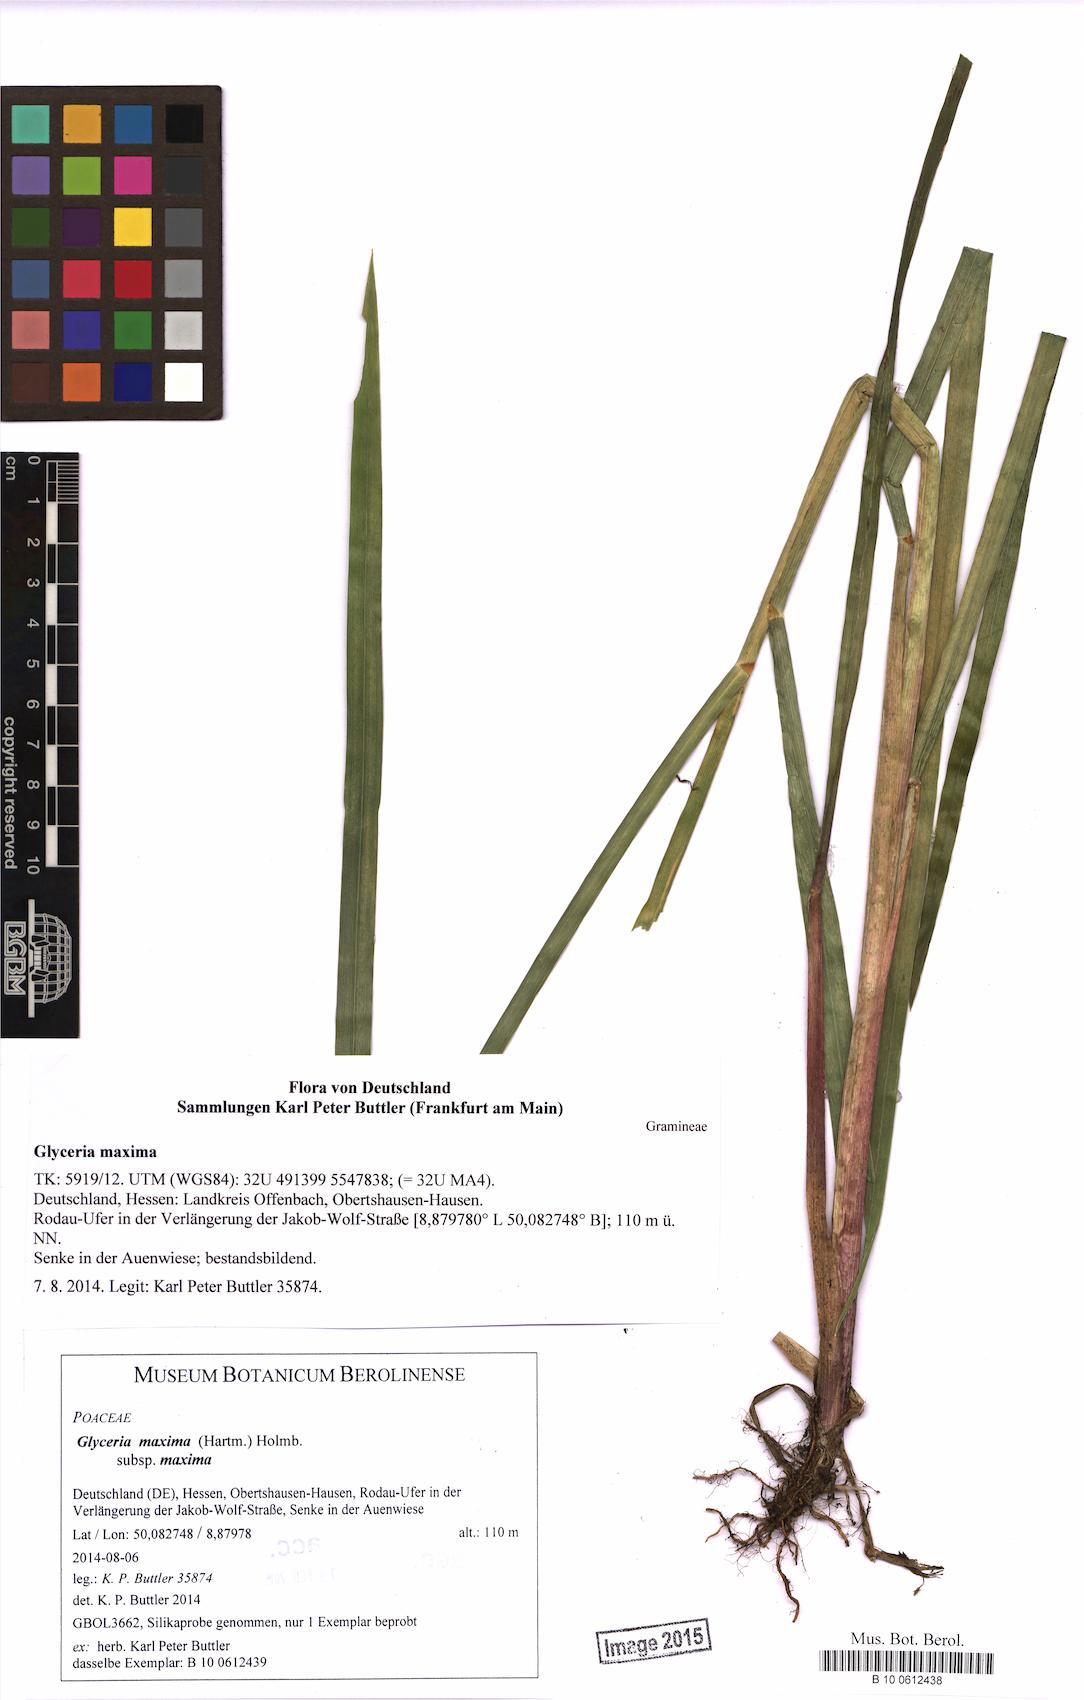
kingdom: Plantae
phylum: Tracheophyta
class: Liliopsida
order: Poales
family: Poaceae
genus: Glyceria
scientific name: Glyceria maxima
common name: Reed mannagrass
